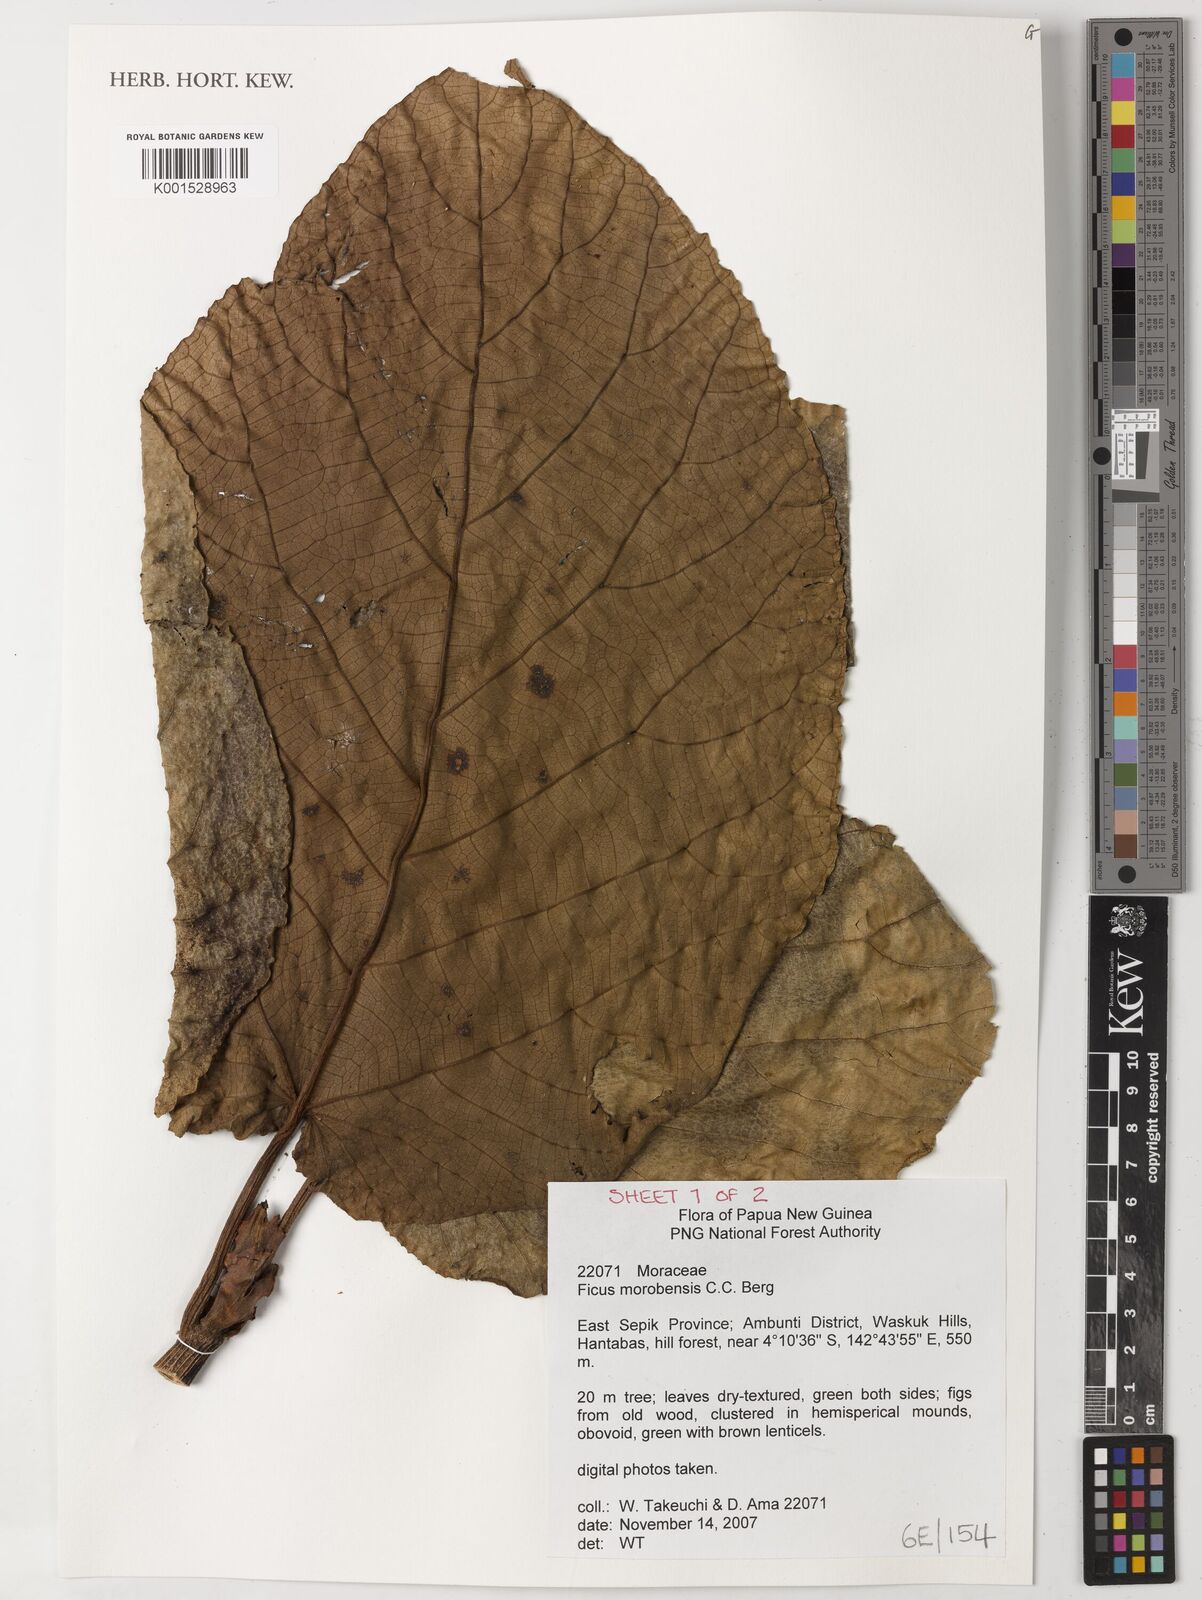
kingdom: Plantae
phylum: Tracheophyta
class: Magnoliopsida
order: Rosales
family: Moraceae
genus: Ficus
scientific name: Ficus morobensis
